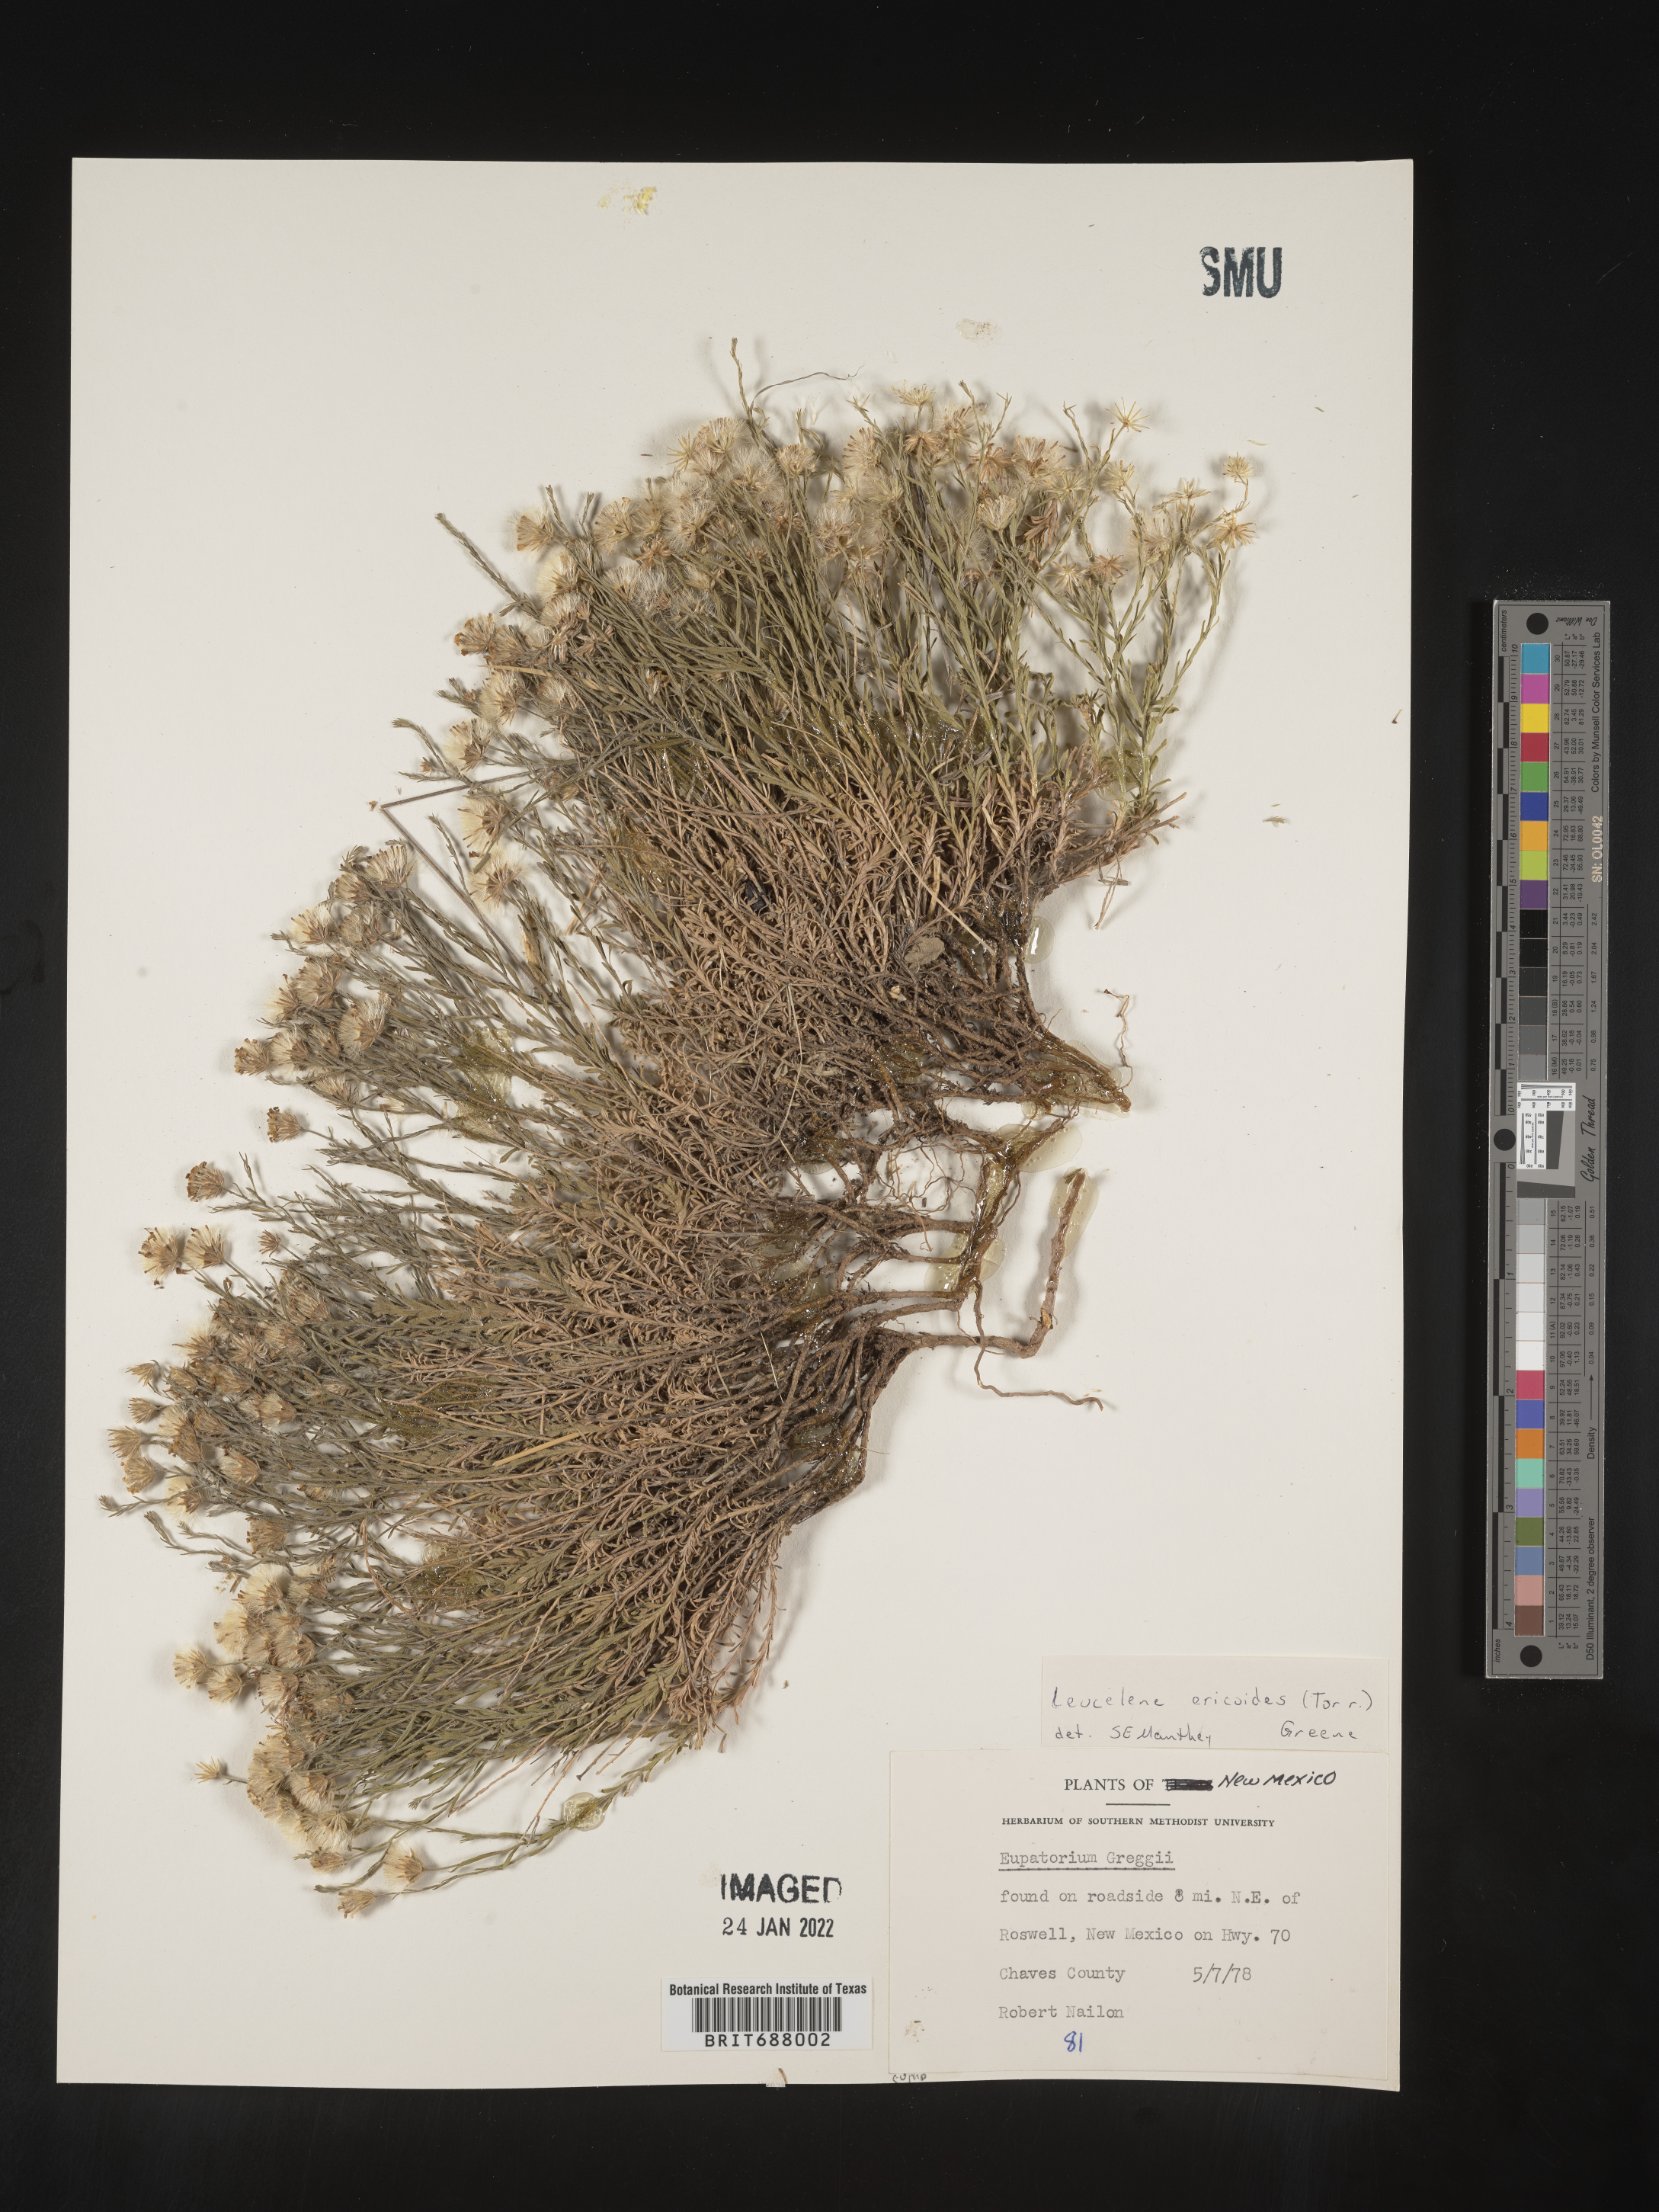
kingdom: Plantae
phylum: Tracheophyta
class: Magnoliopsida
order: Asterales
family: Asteraceae
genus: Chaetopappa
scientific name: Chaetopappa ericoides
